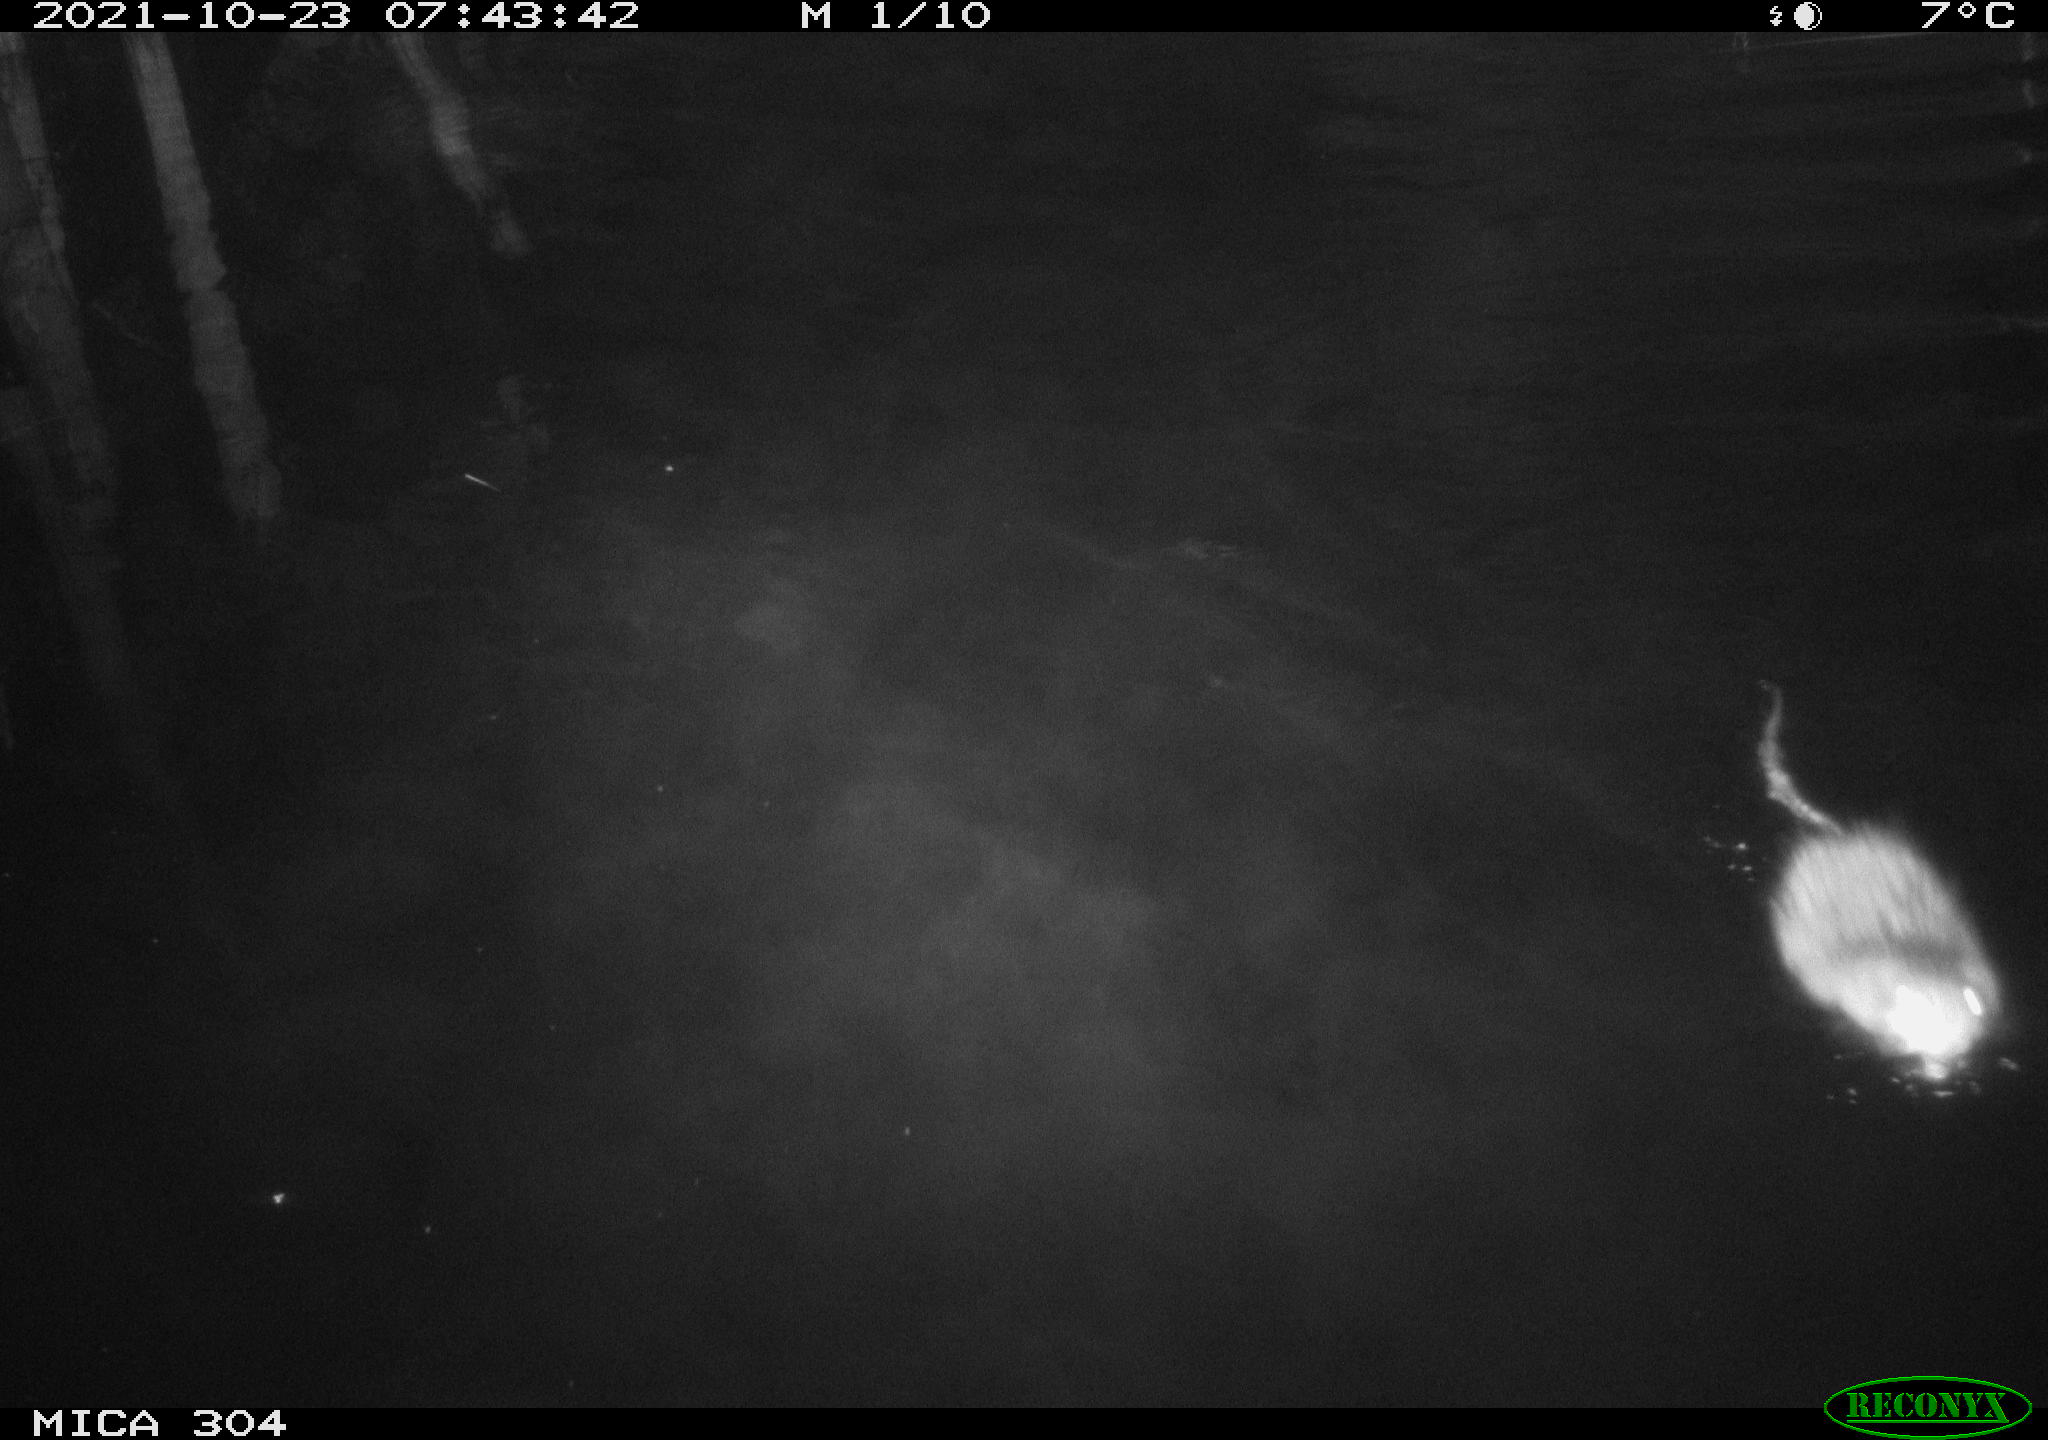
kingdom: Animalia
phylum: Chordata
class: Mammalia
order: Rodentia
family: Cricetidae
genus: Ondatra
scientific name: Ondatra zibethicus
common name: Muskrat
